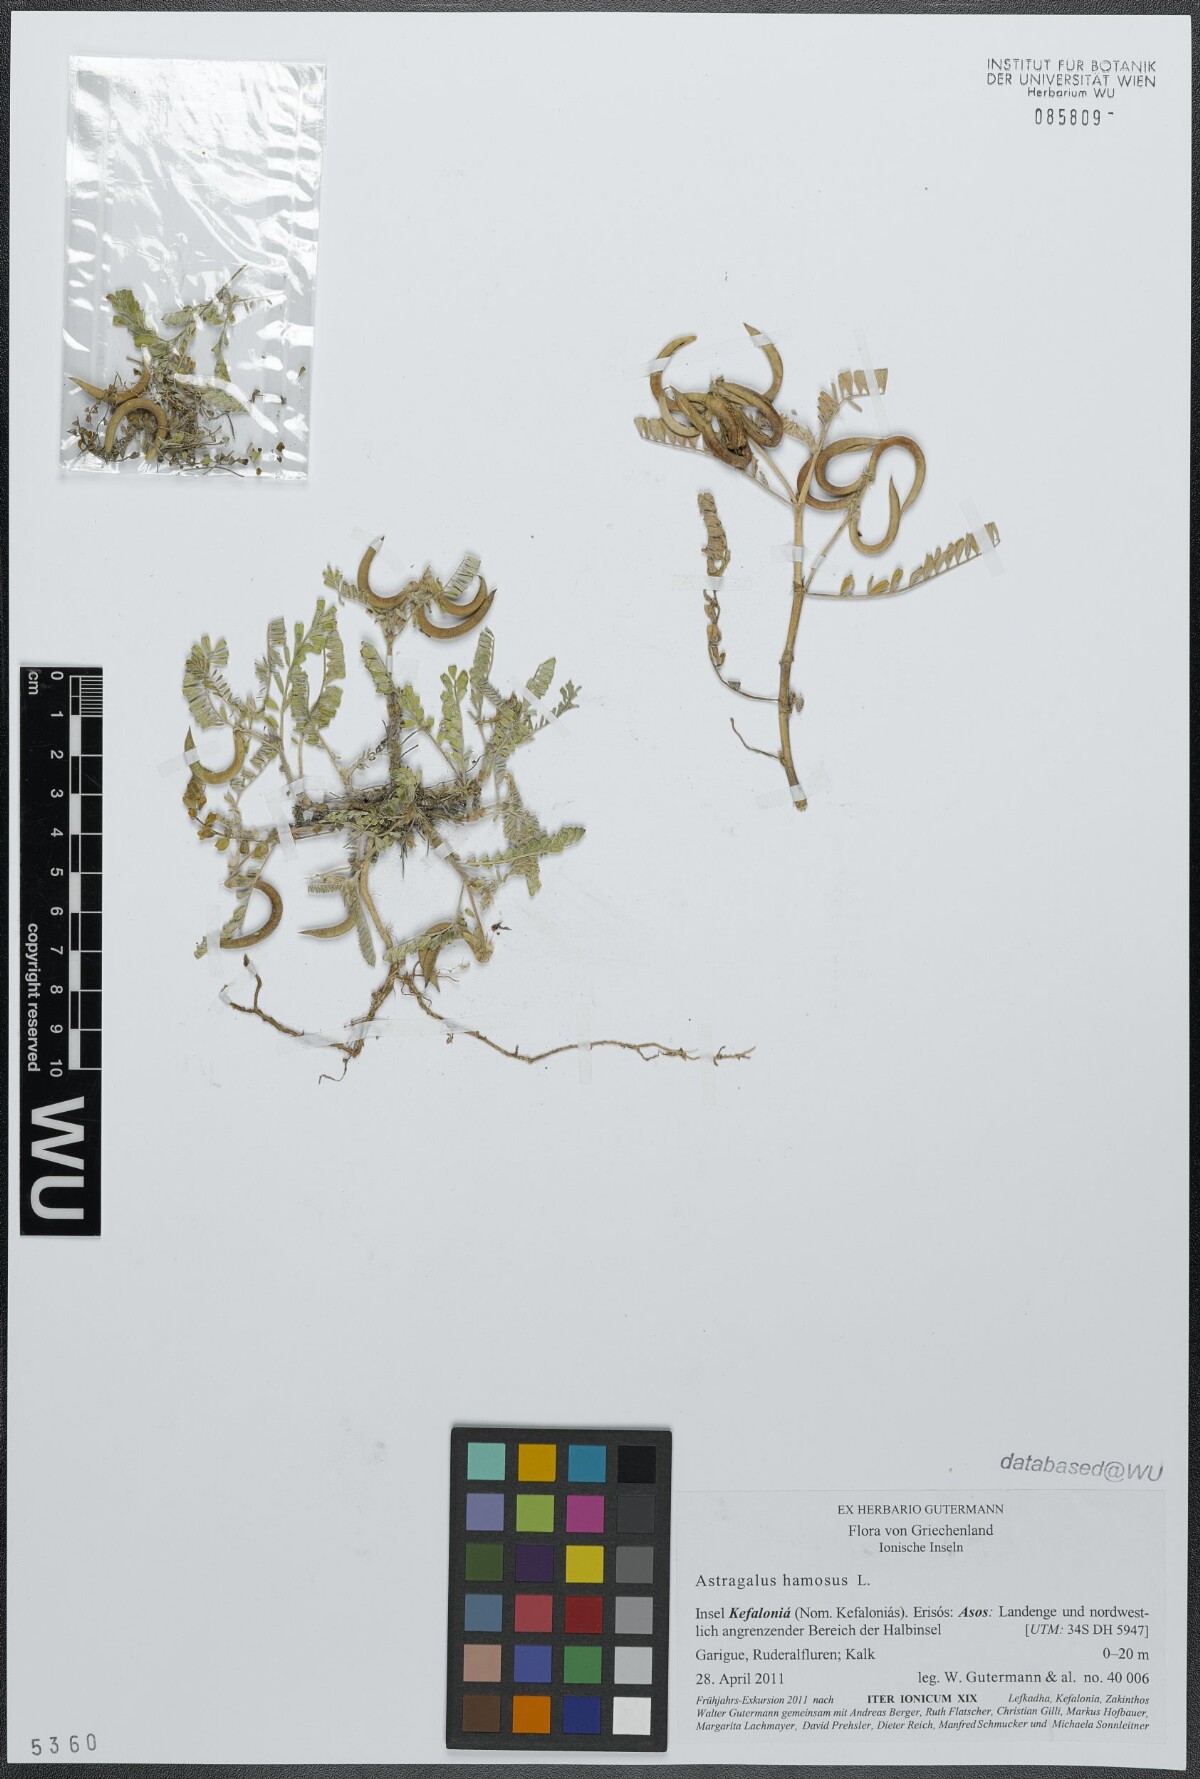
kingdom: Plantae
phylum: Tracheophyta
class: Magnoliopsida
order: Fabales
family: Fabaceae
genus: Astragalus
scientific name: Astragalus hamosus
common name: European milkvetch
